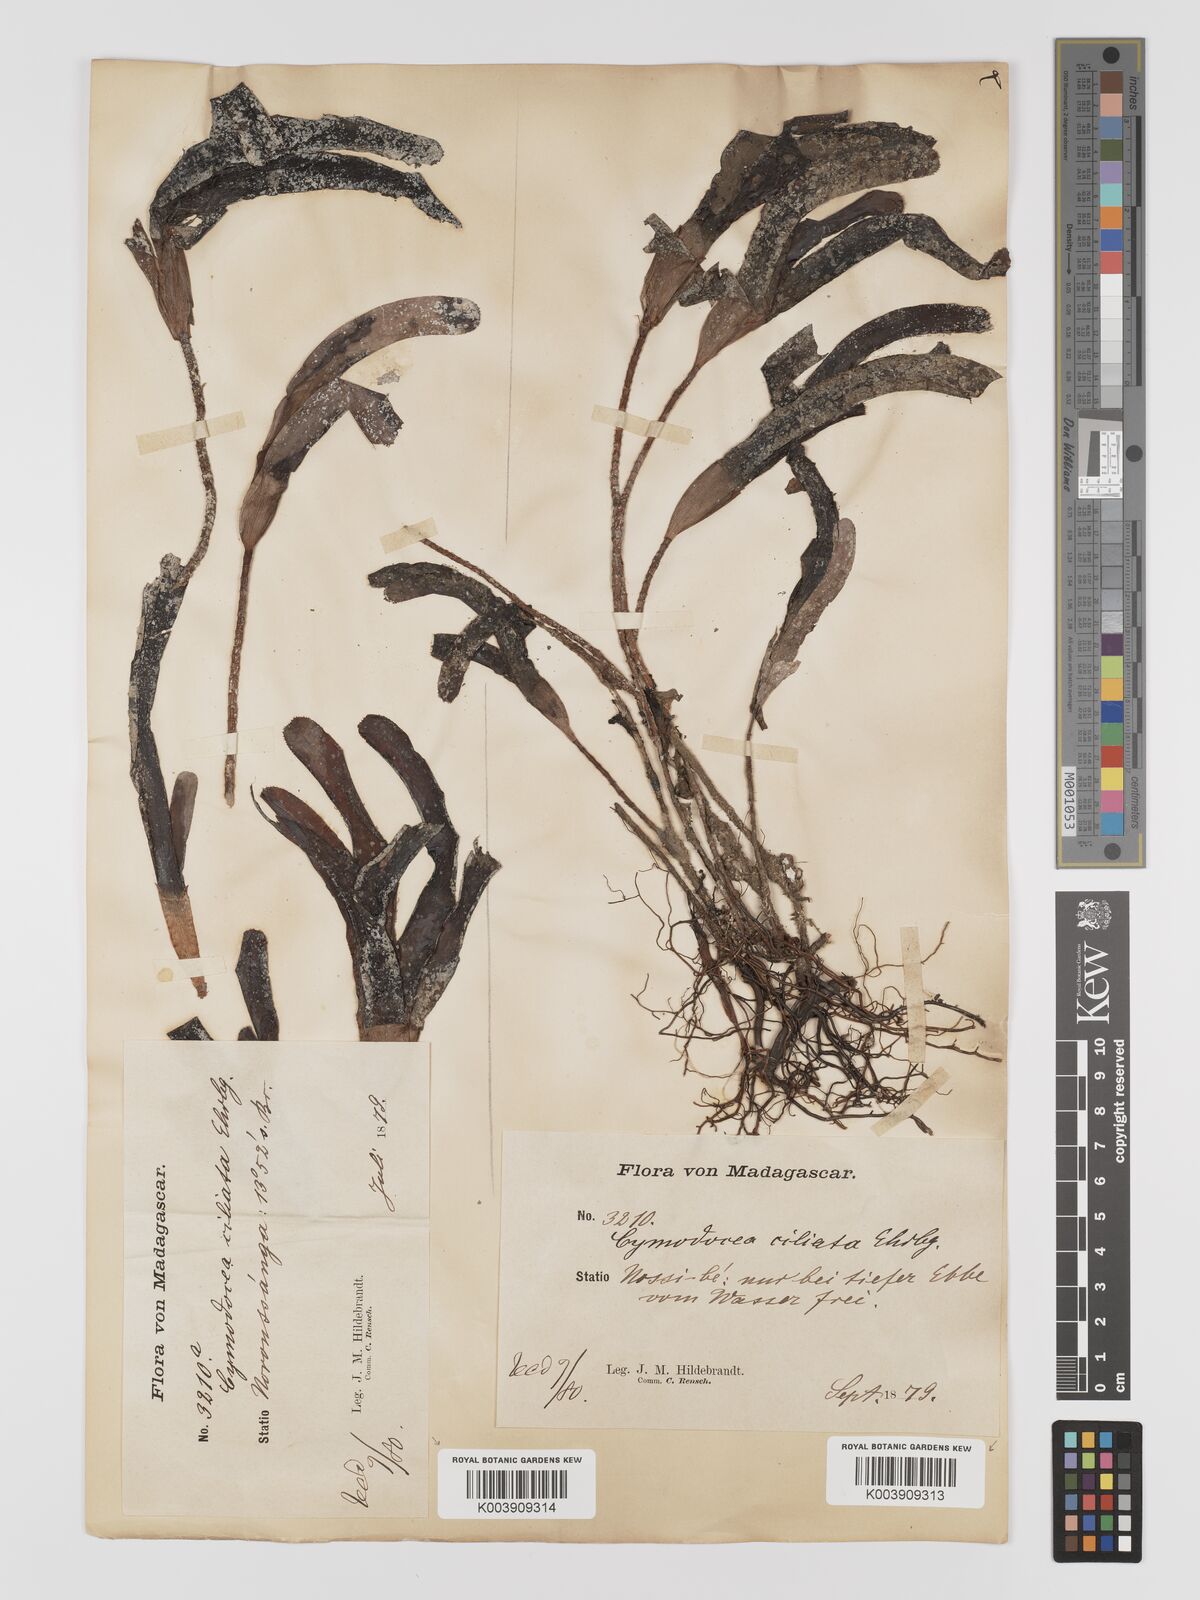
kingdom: Plantae
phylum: Tracheophyta
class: Liliopsida
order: Alismatales
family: Cymodoceaceae
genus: Thalassodendron
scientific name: Thalassodendron ciliatum
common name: Species code: tc
